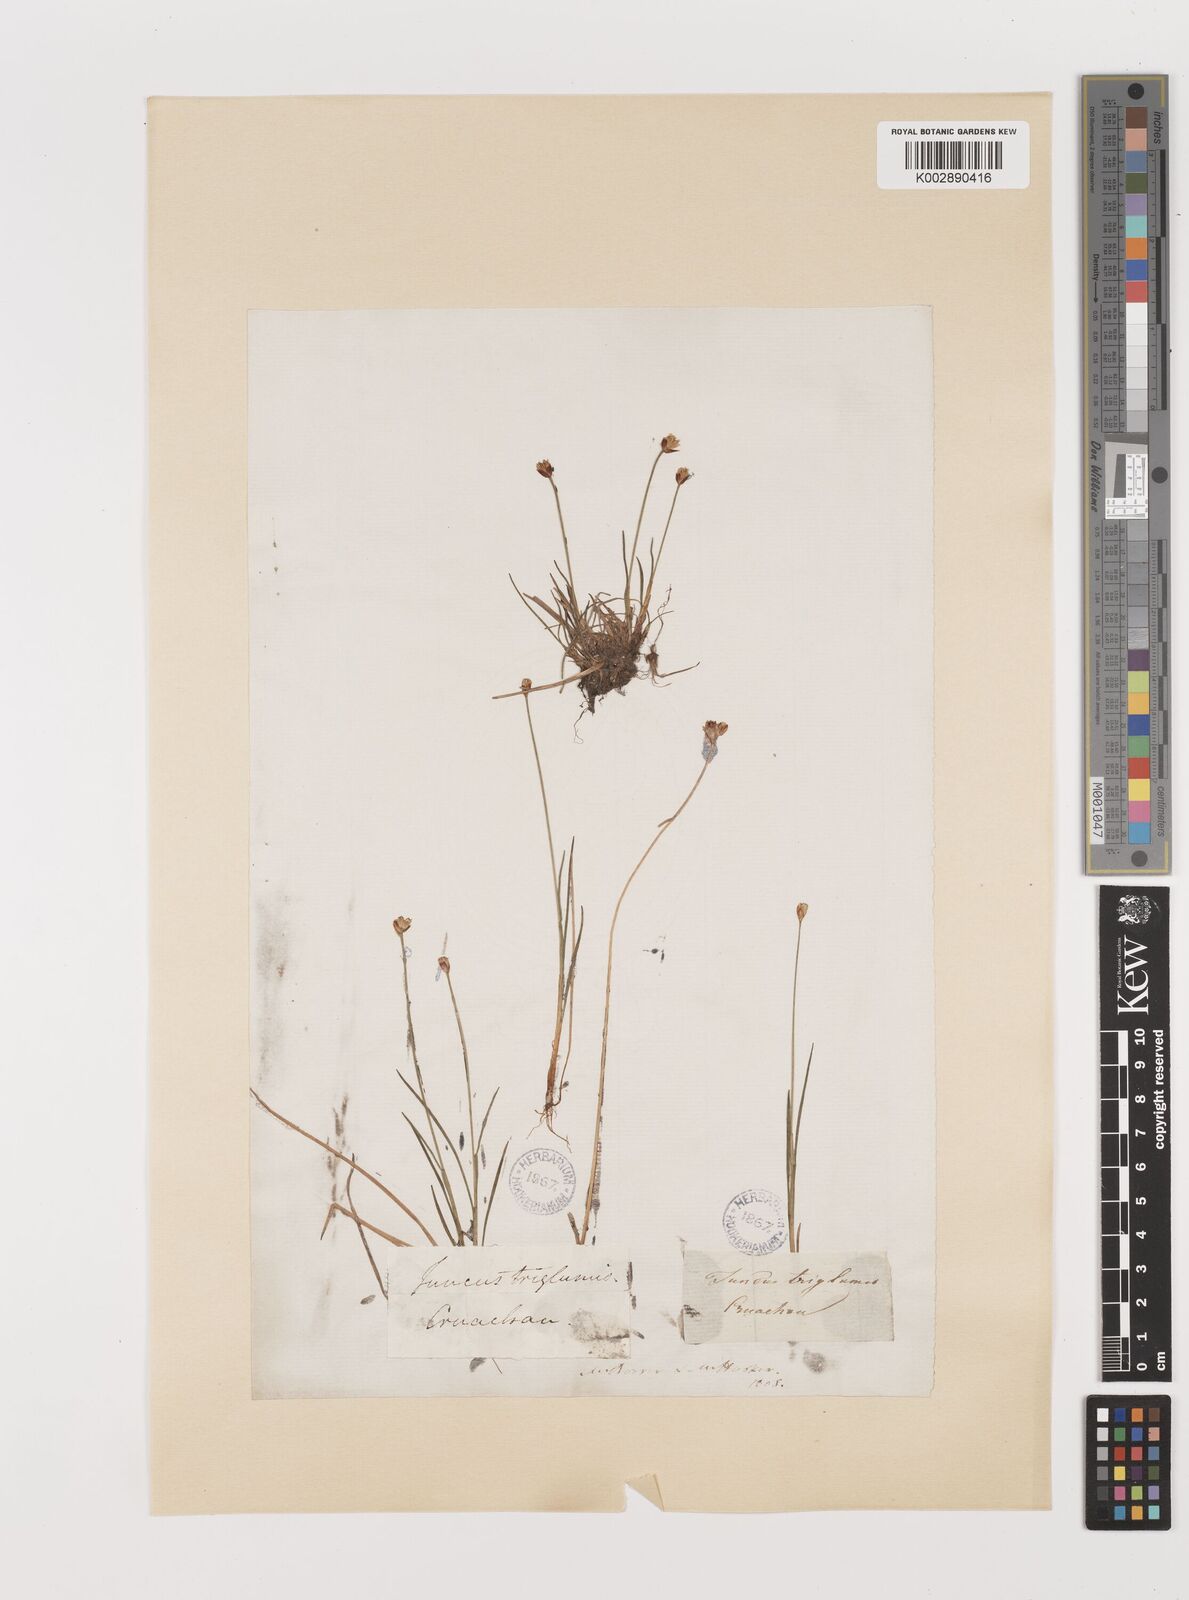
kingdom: Plantae
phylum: Tracheophyta
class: Liliopsida
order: Poales
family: Juncaceae
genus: Juncus
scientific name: Juncus triglumis
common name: Three-flowered rush
